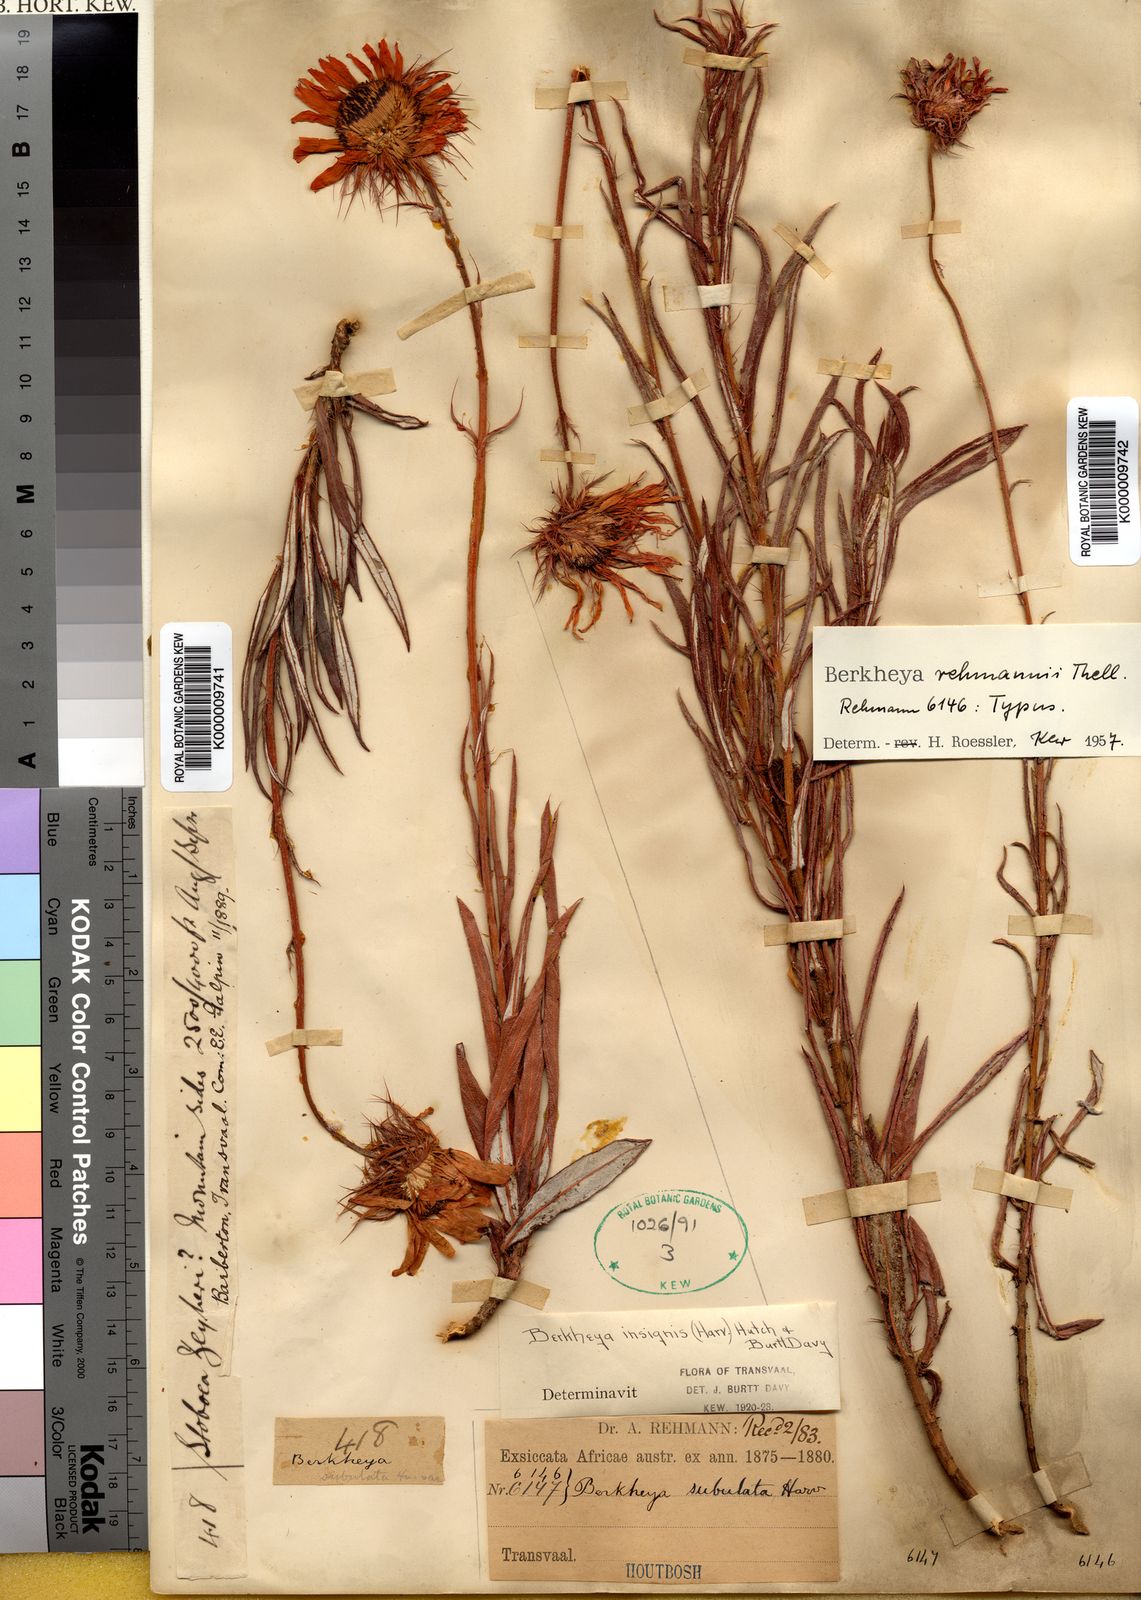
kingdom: Plantae
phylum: Tracheophyta
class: Magnoliopsida
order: Asterales
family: Asteraceae
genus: Berkheya
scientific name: Berkheya zeyheri
